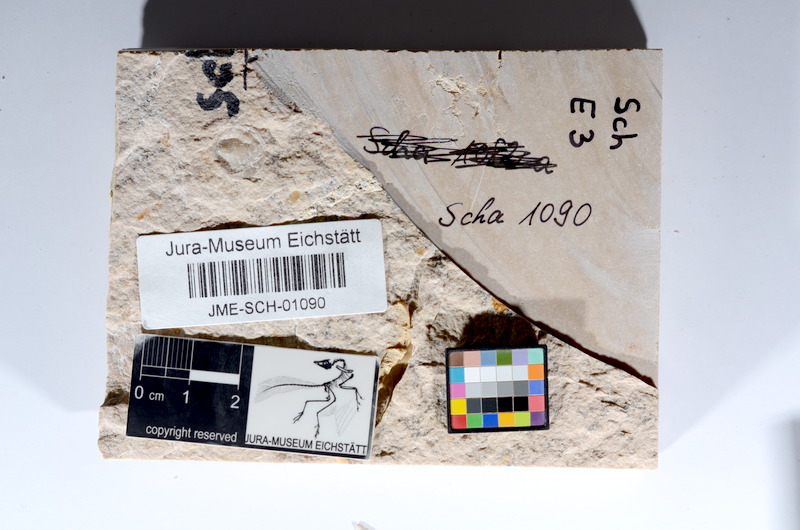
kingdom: Animalia
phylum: Chordata
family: Ascalaboidae
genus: Tharsis
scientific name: Tharsis dubius
